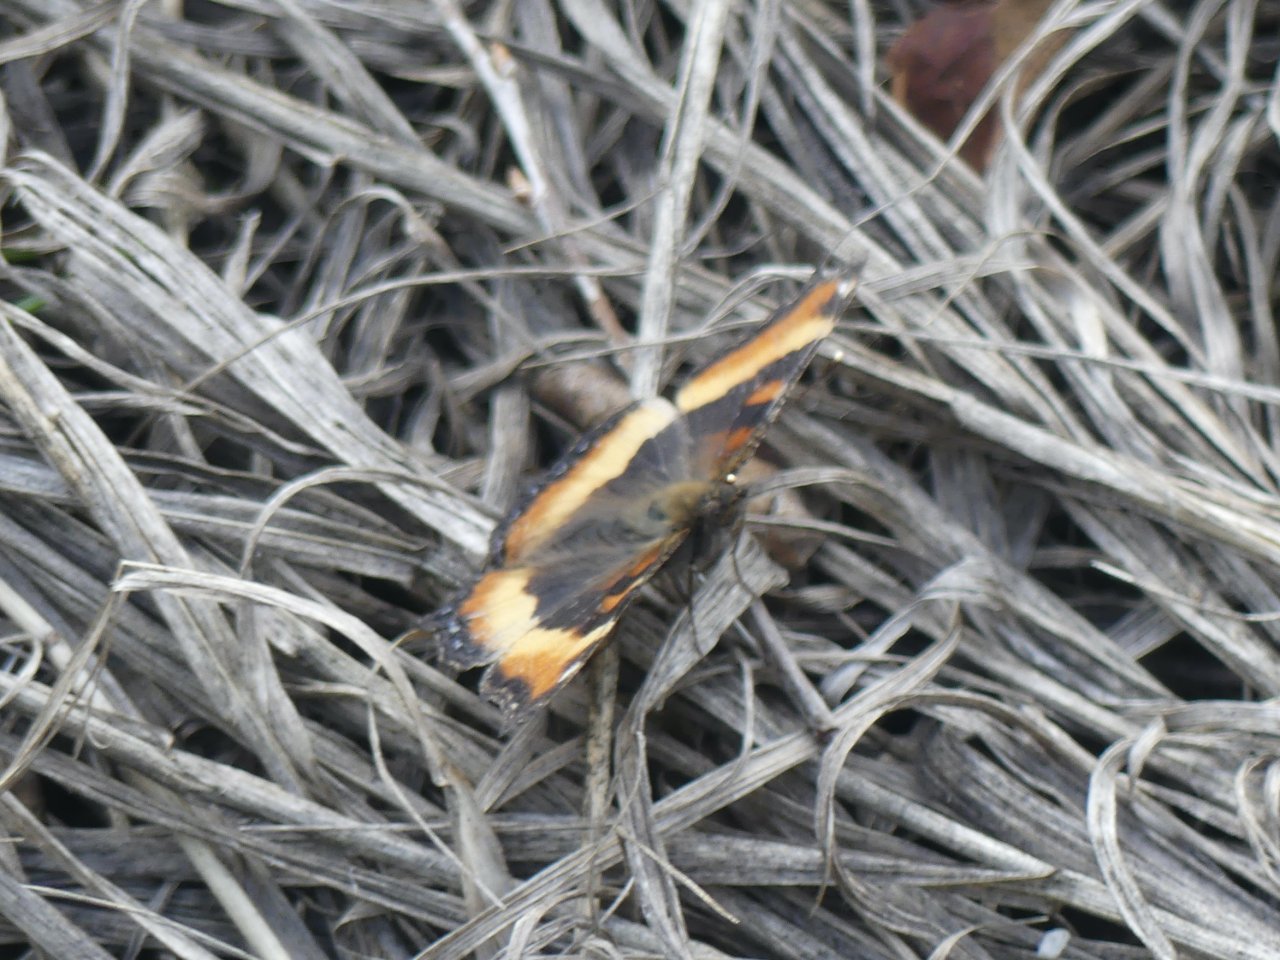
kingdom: Animalia
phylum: Arthropoda
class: Insecta
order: Lepidoptera
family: Nymphalidae
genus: Aglais
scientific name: Aglais milberti
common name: Milbert's Tortoiseshell
